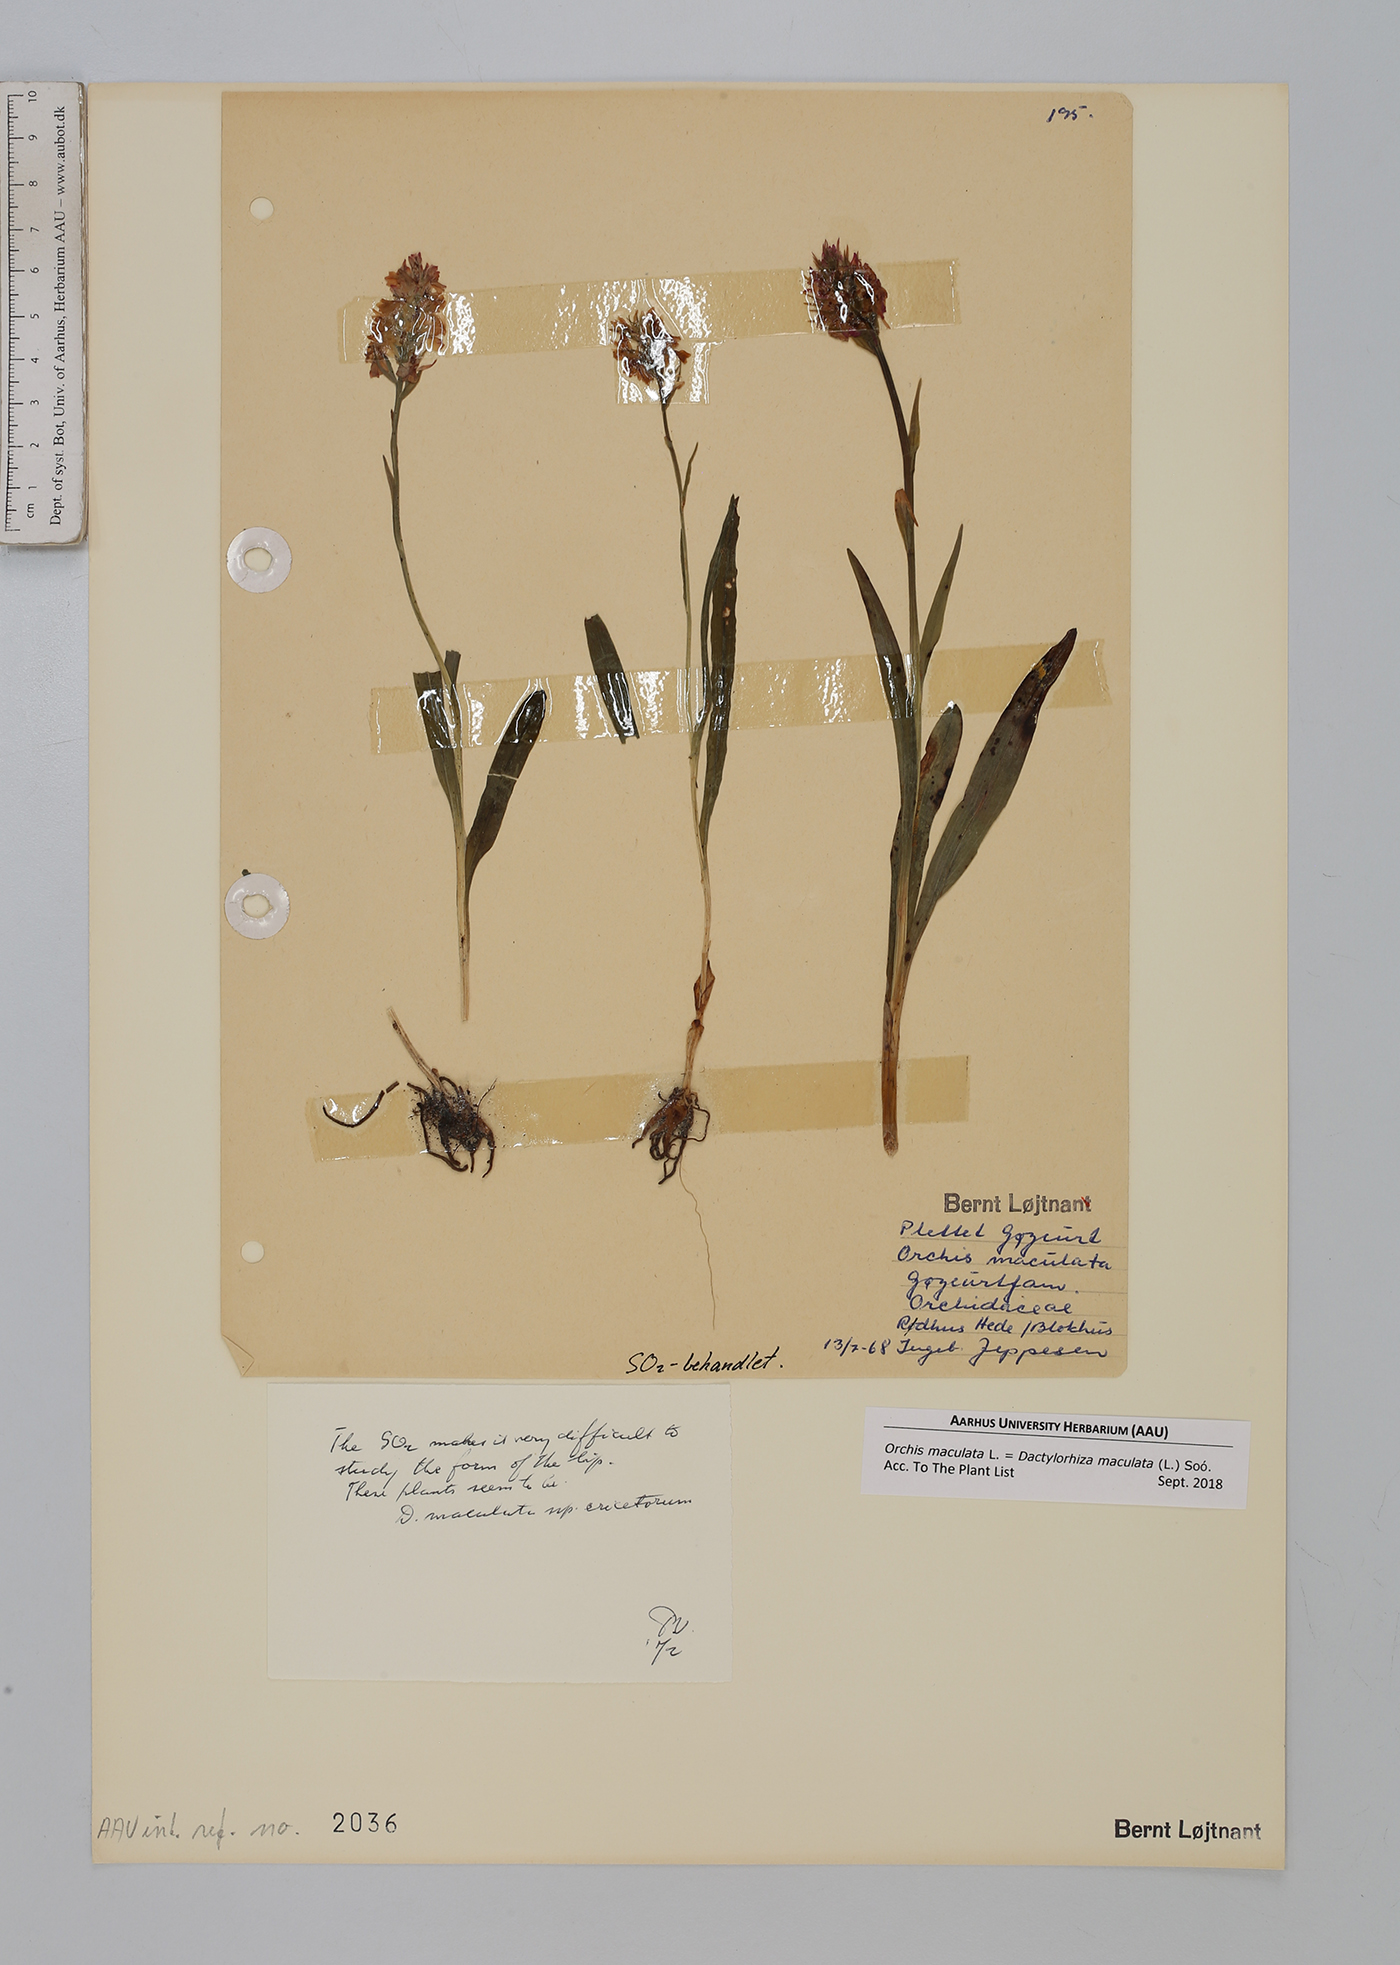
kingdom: Plantae
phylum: Tracheophyta
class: Liliopsida
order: Asparagales
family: Orchidaceae
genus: Dactylorhiza
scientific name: Dactylorhiza maculata
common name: Heath spotted-orchid
